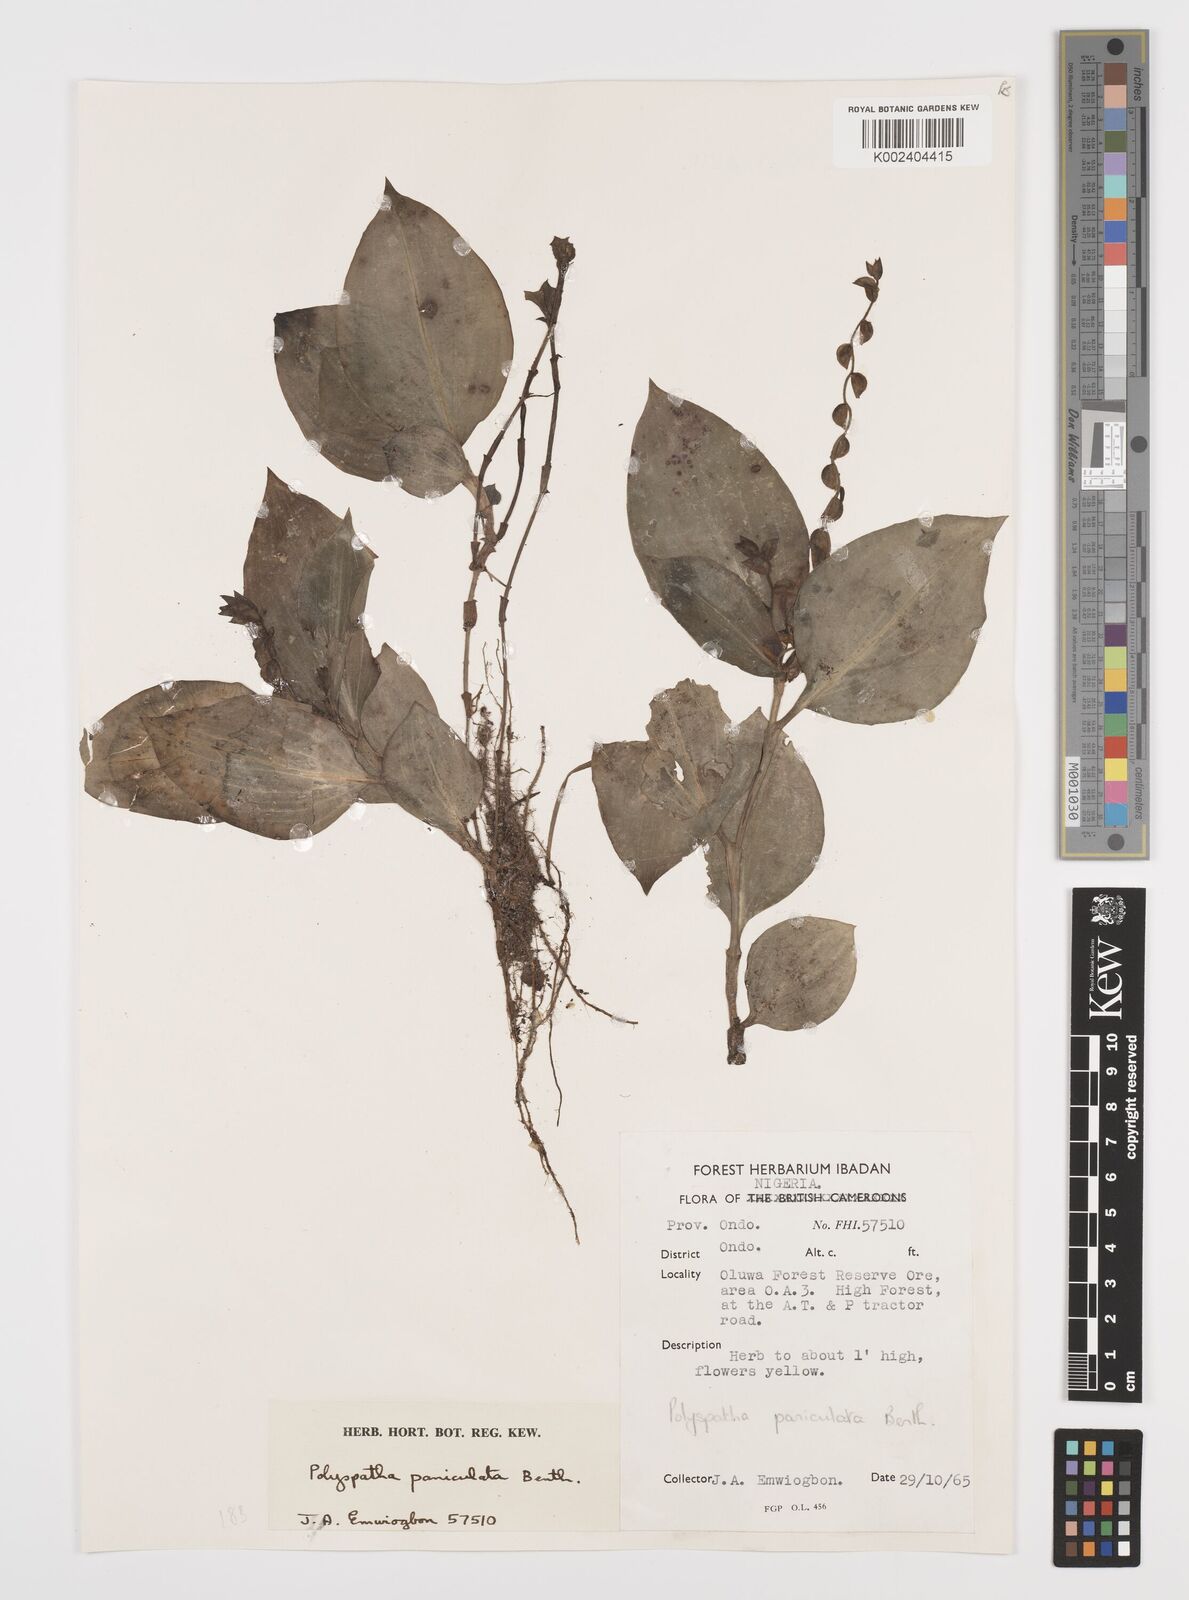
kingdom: Plantae
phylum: Tracheophyta
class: Liliopsida
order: Commelinales
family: Commelinaceae
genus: Polyspatha
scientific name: Polyspatha paniculata
